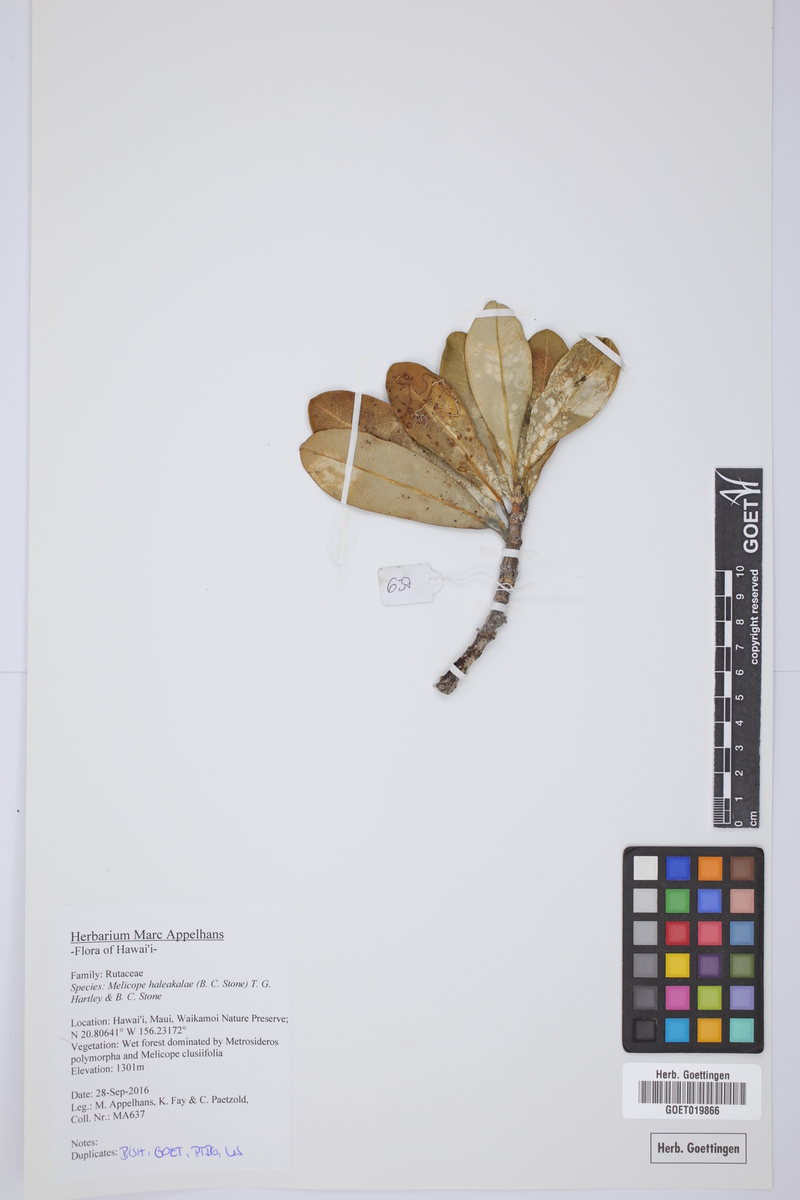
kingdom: Plantae
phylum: Tracheophyta
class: Magnoliopsida
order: Sapindales
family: Rutaceae
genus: Melicope
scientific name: Melicope haleakalae
